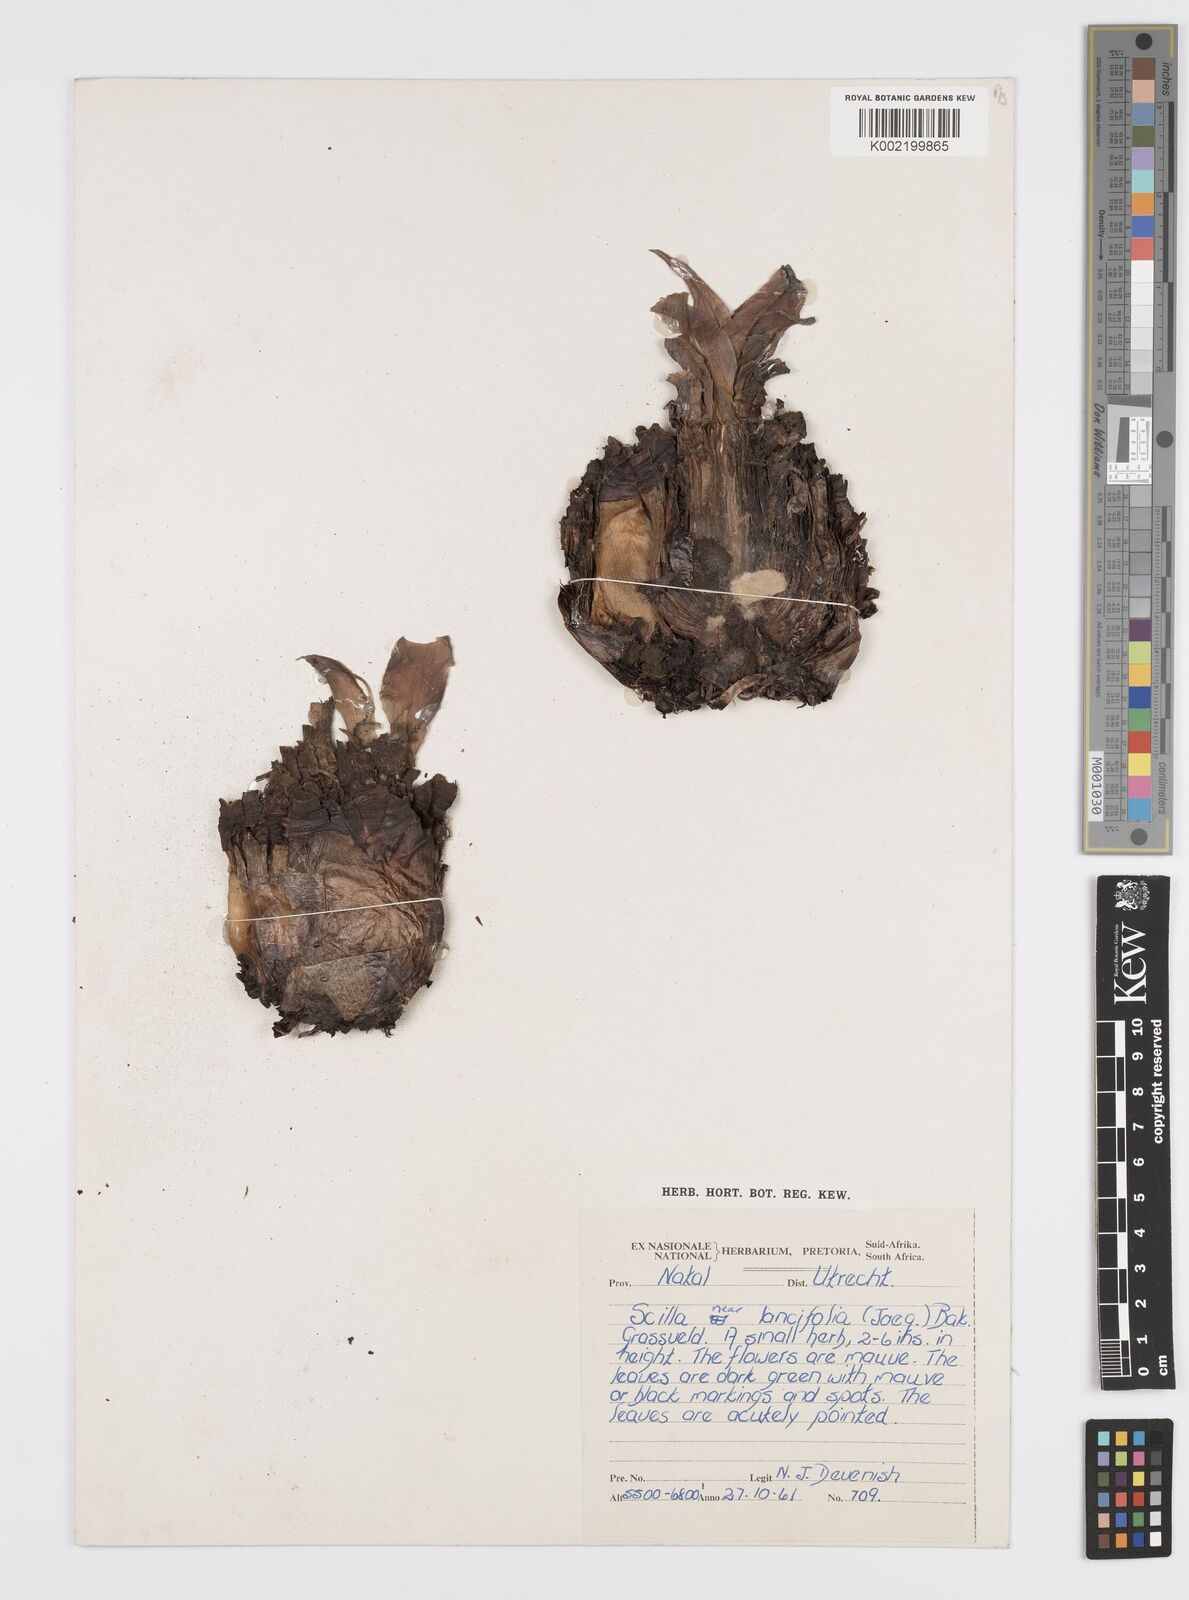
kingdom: Plantae
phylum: Tracheophyta
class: Liliopsida
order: Asparagales
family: Asparagaceae
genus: Ledebouria
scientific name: Ledebouria floribunda
